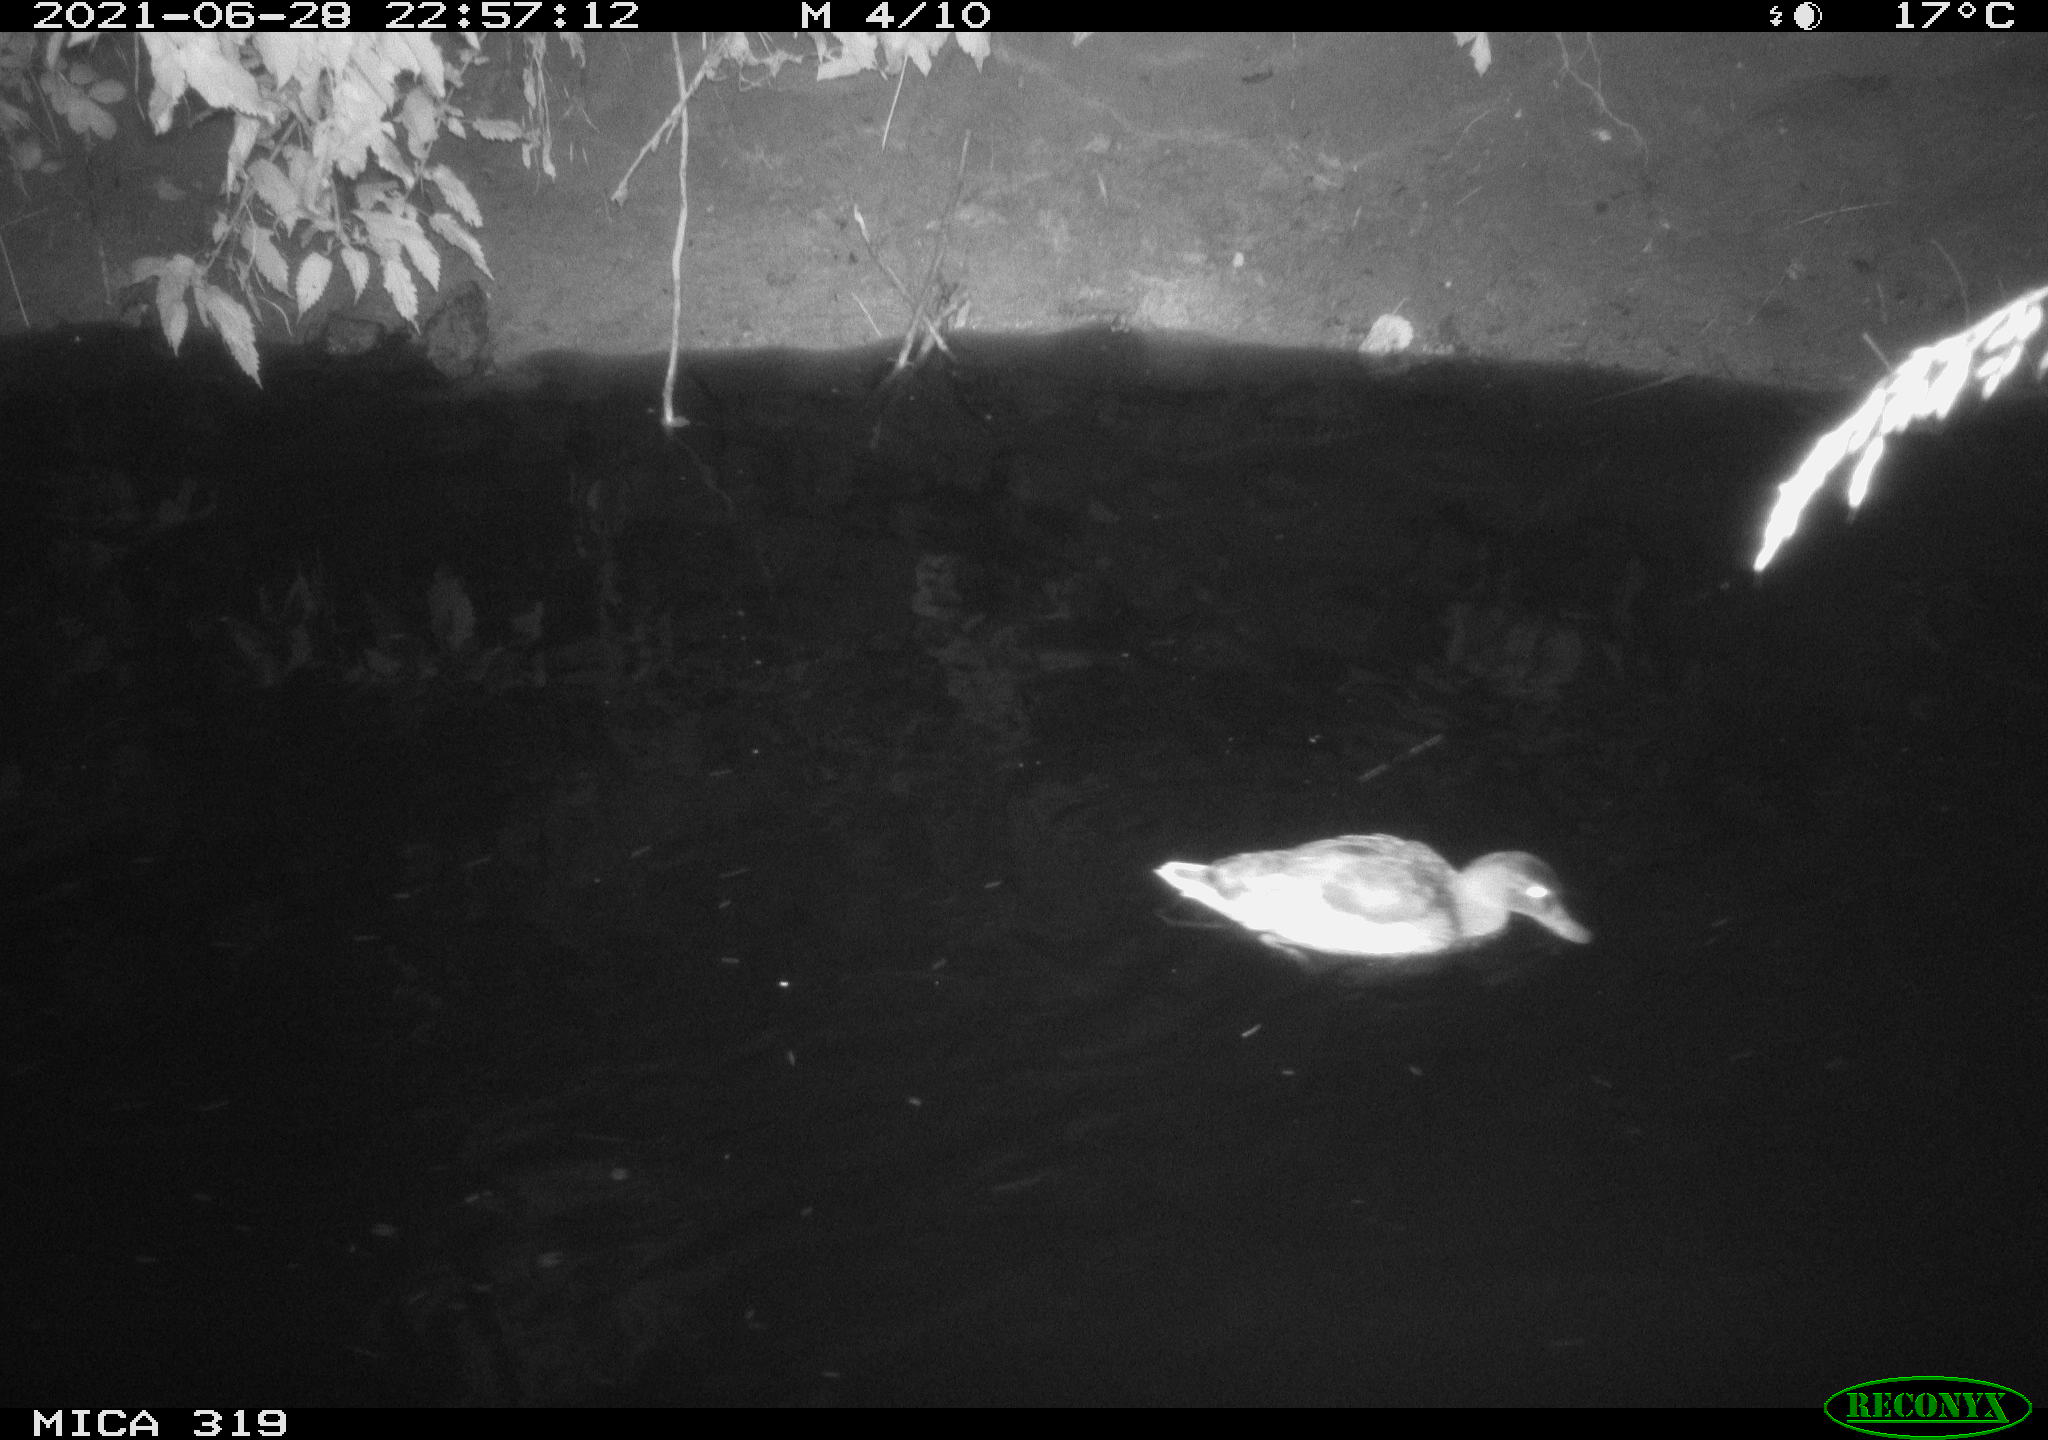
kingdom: Animalia
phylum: Chordata
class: Aves
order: Anseriformes
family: Anatidae
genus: Anas
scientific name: Anas platyrhynchos
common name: Mallard
